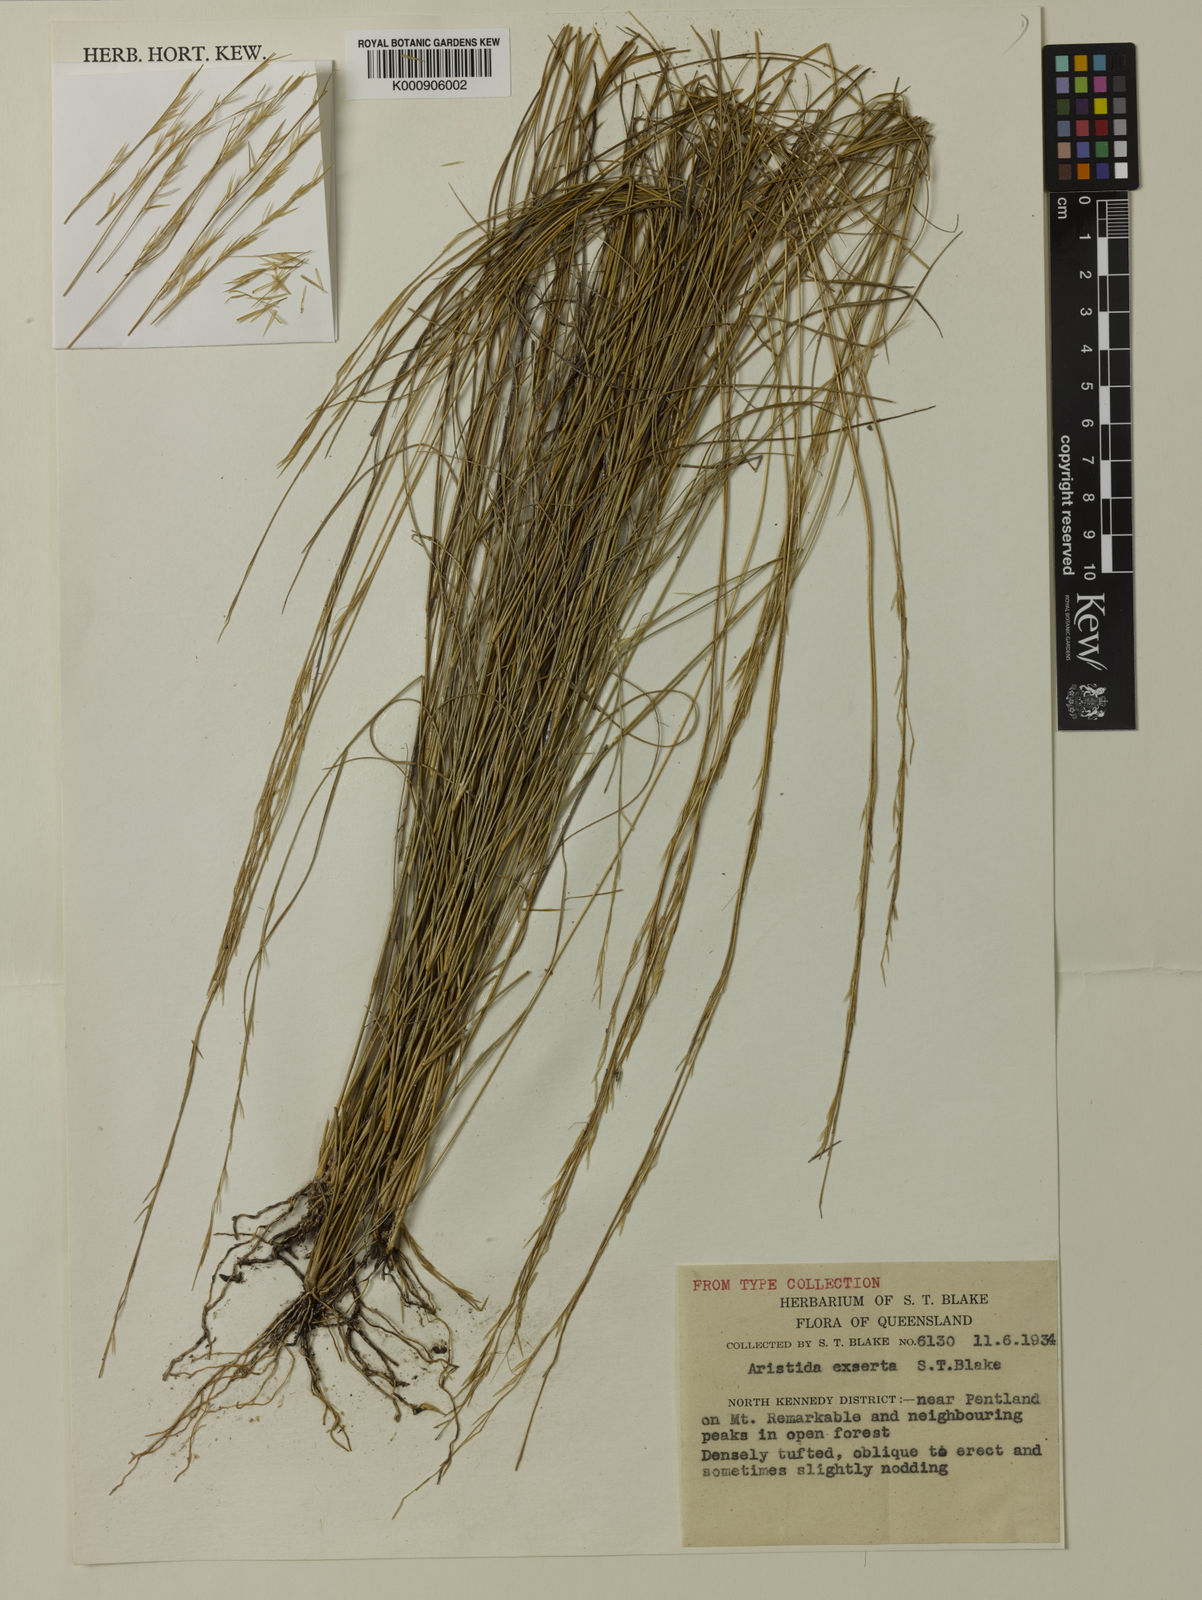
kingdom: Plantae
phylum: Tracheophyta
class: Liliopsida
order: Poales
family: Poaceae
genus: Aristida
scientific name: Aristida exserta
